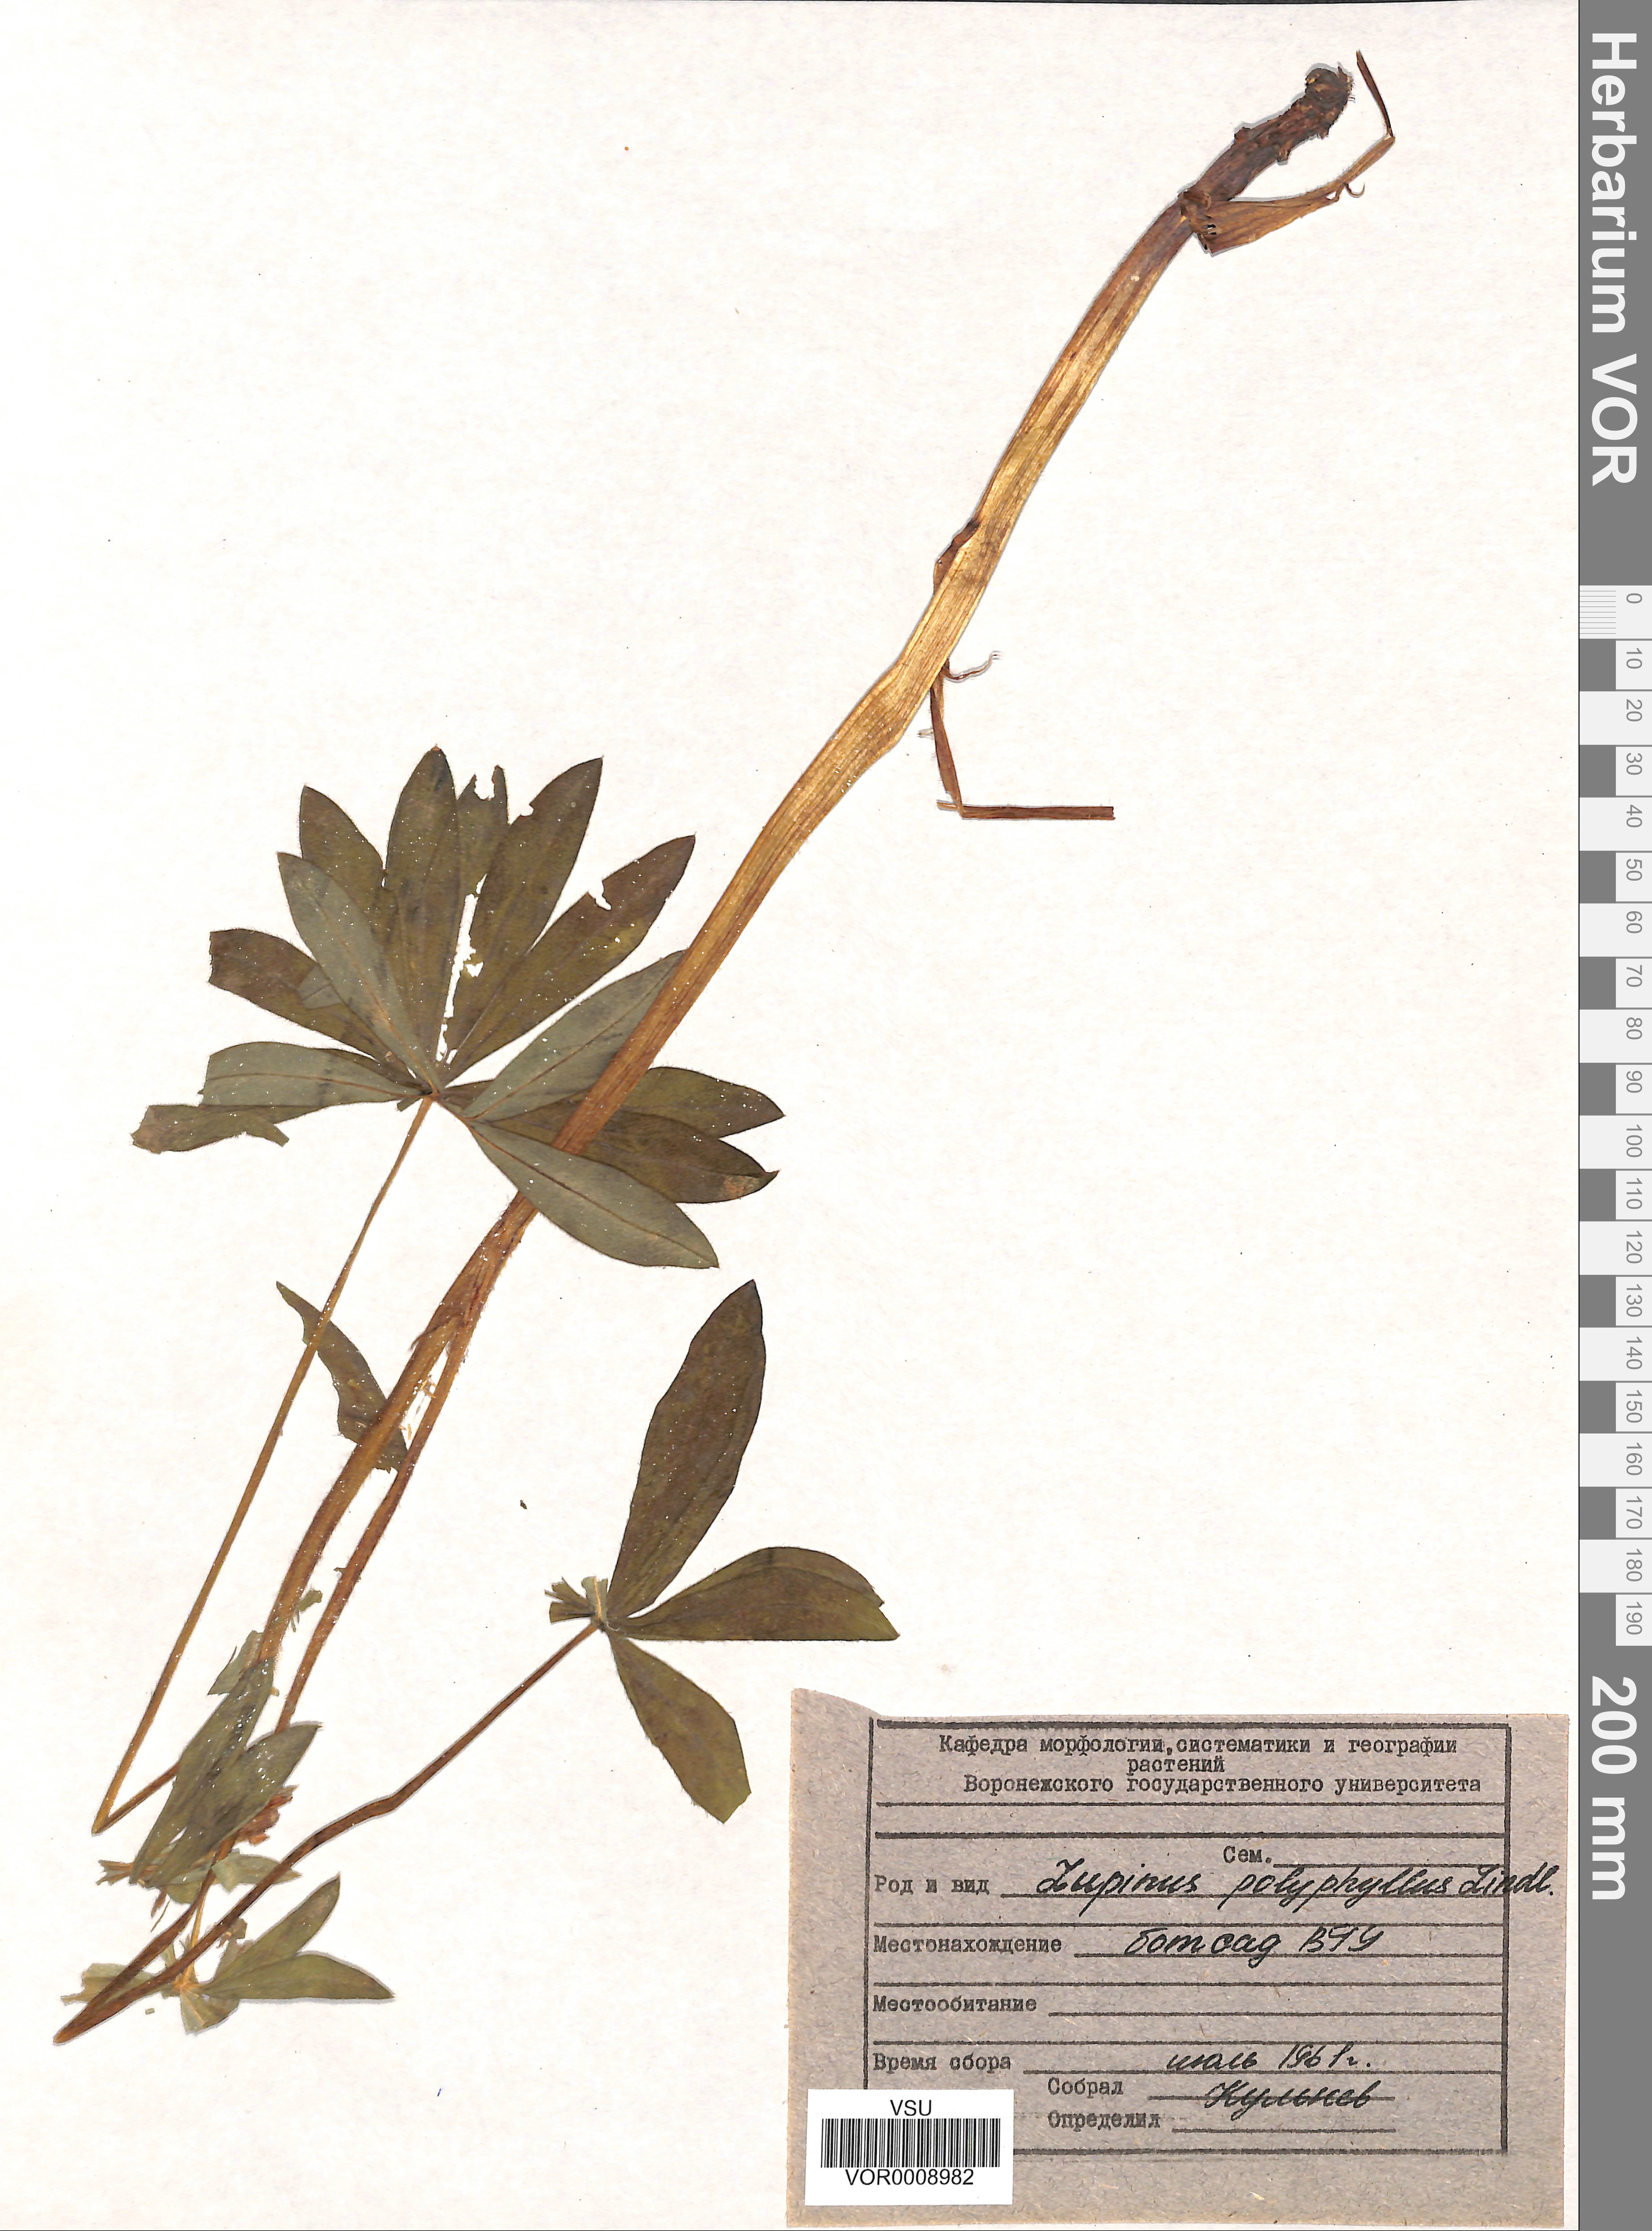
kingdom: Plantae
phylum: Tracheophyta
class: Magnoliopsida
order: Fabales
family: Fabaceae
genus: Lupinus
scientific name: Lupinus polyphyllus
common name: Garden lupin
